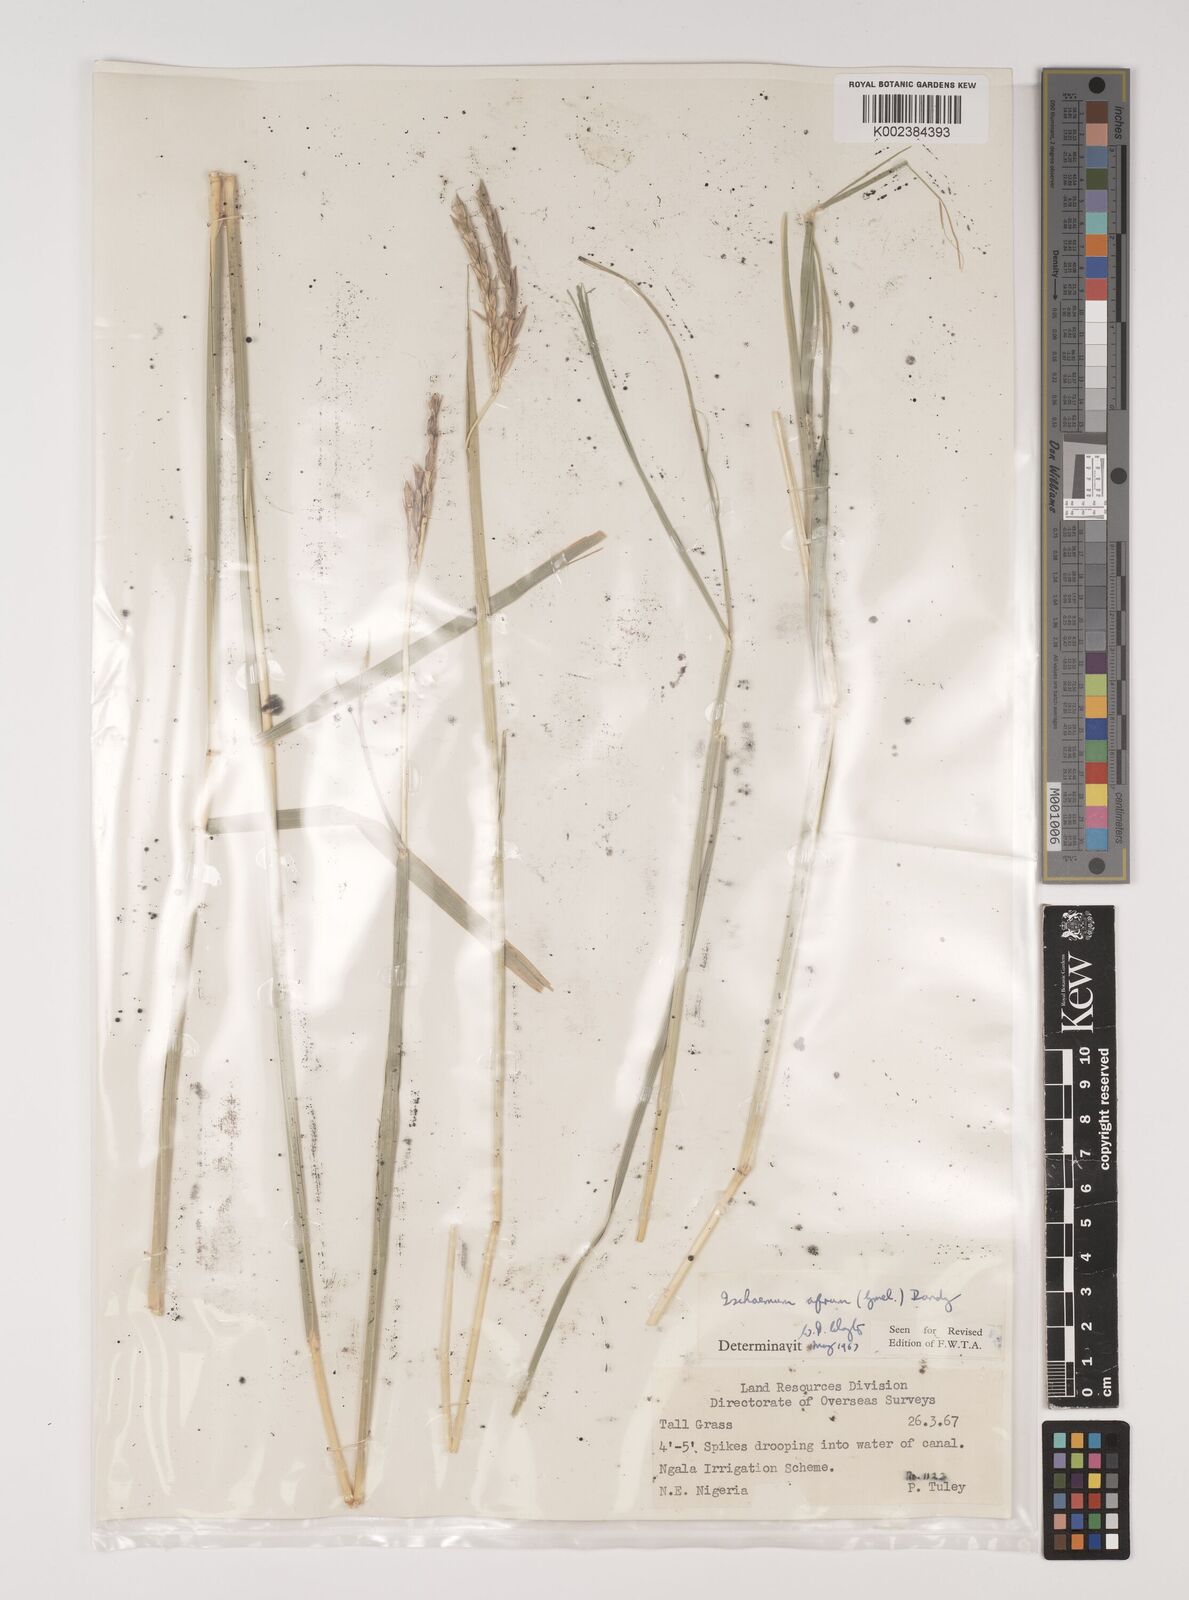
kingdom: Plantae
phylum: Tracheophyta
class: Liliopsida
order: Poales
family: Poaceae
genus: Ischaemum
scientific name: Ischaemum afrum
